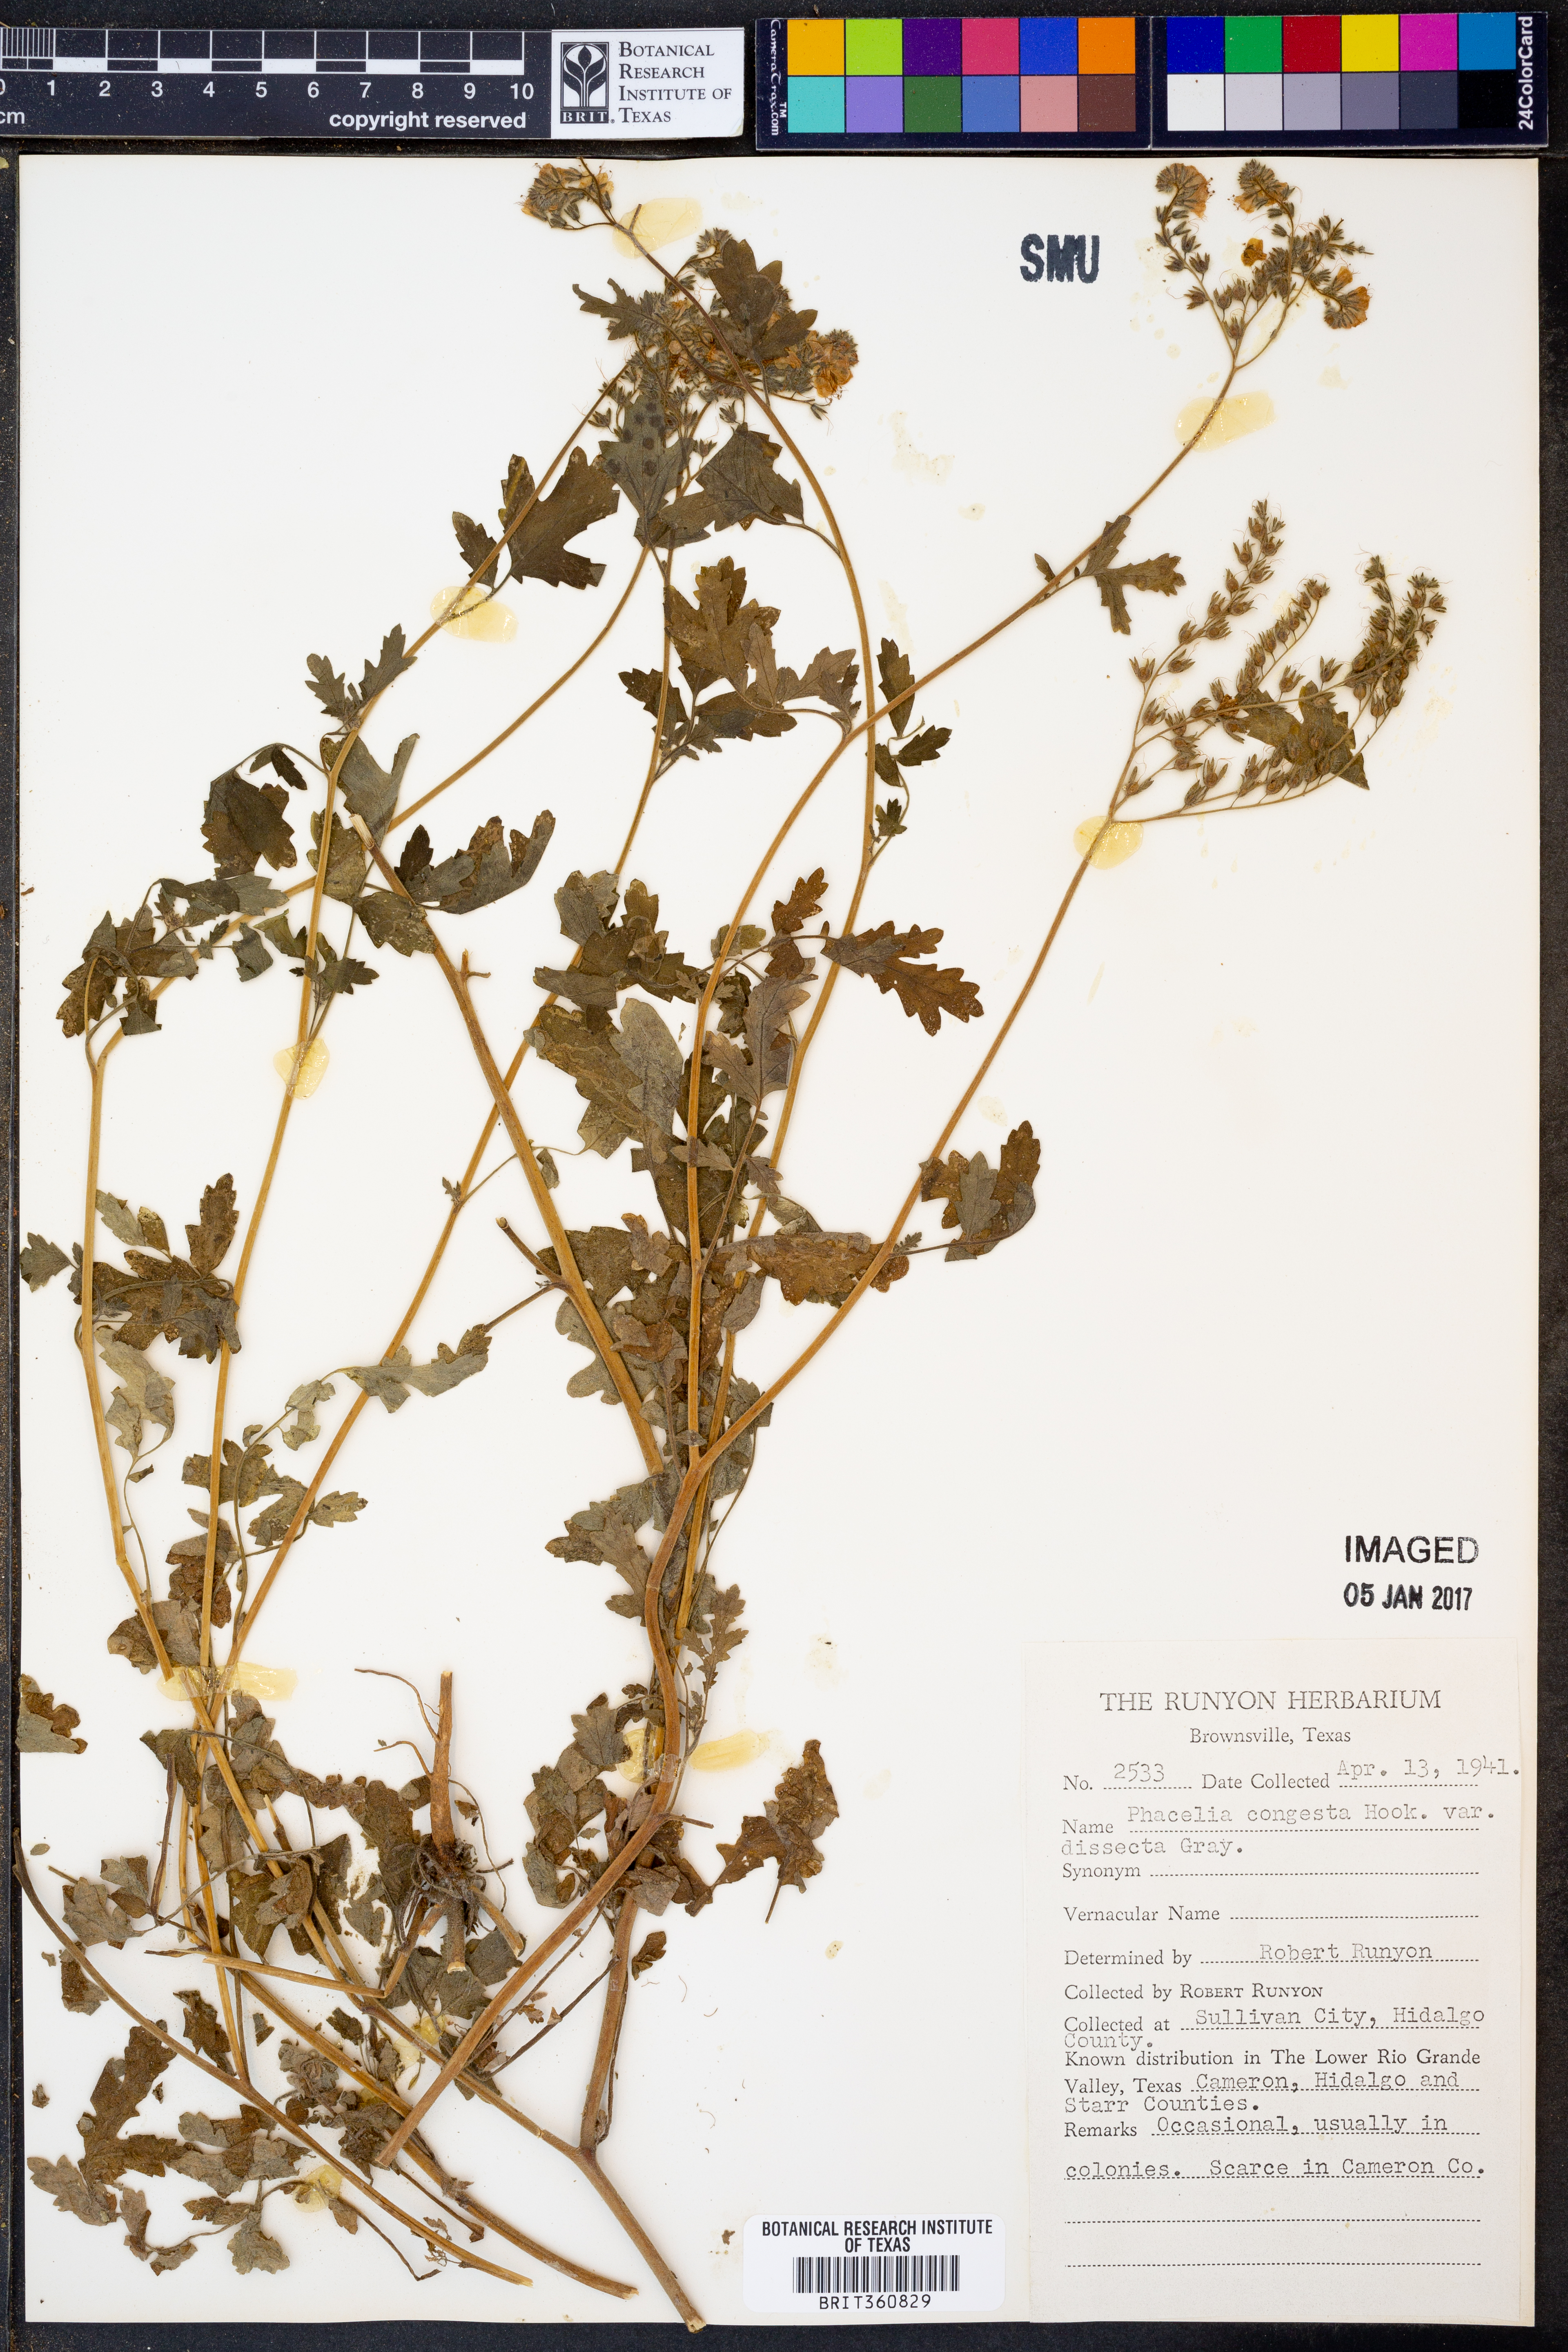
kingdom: Plantae
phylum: Tracheophyta
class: Magnoliopsida
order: Boraginales
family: Hydrophyllaceae
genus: Phacelia
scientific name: Phacelia congesta
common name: Blue curls
